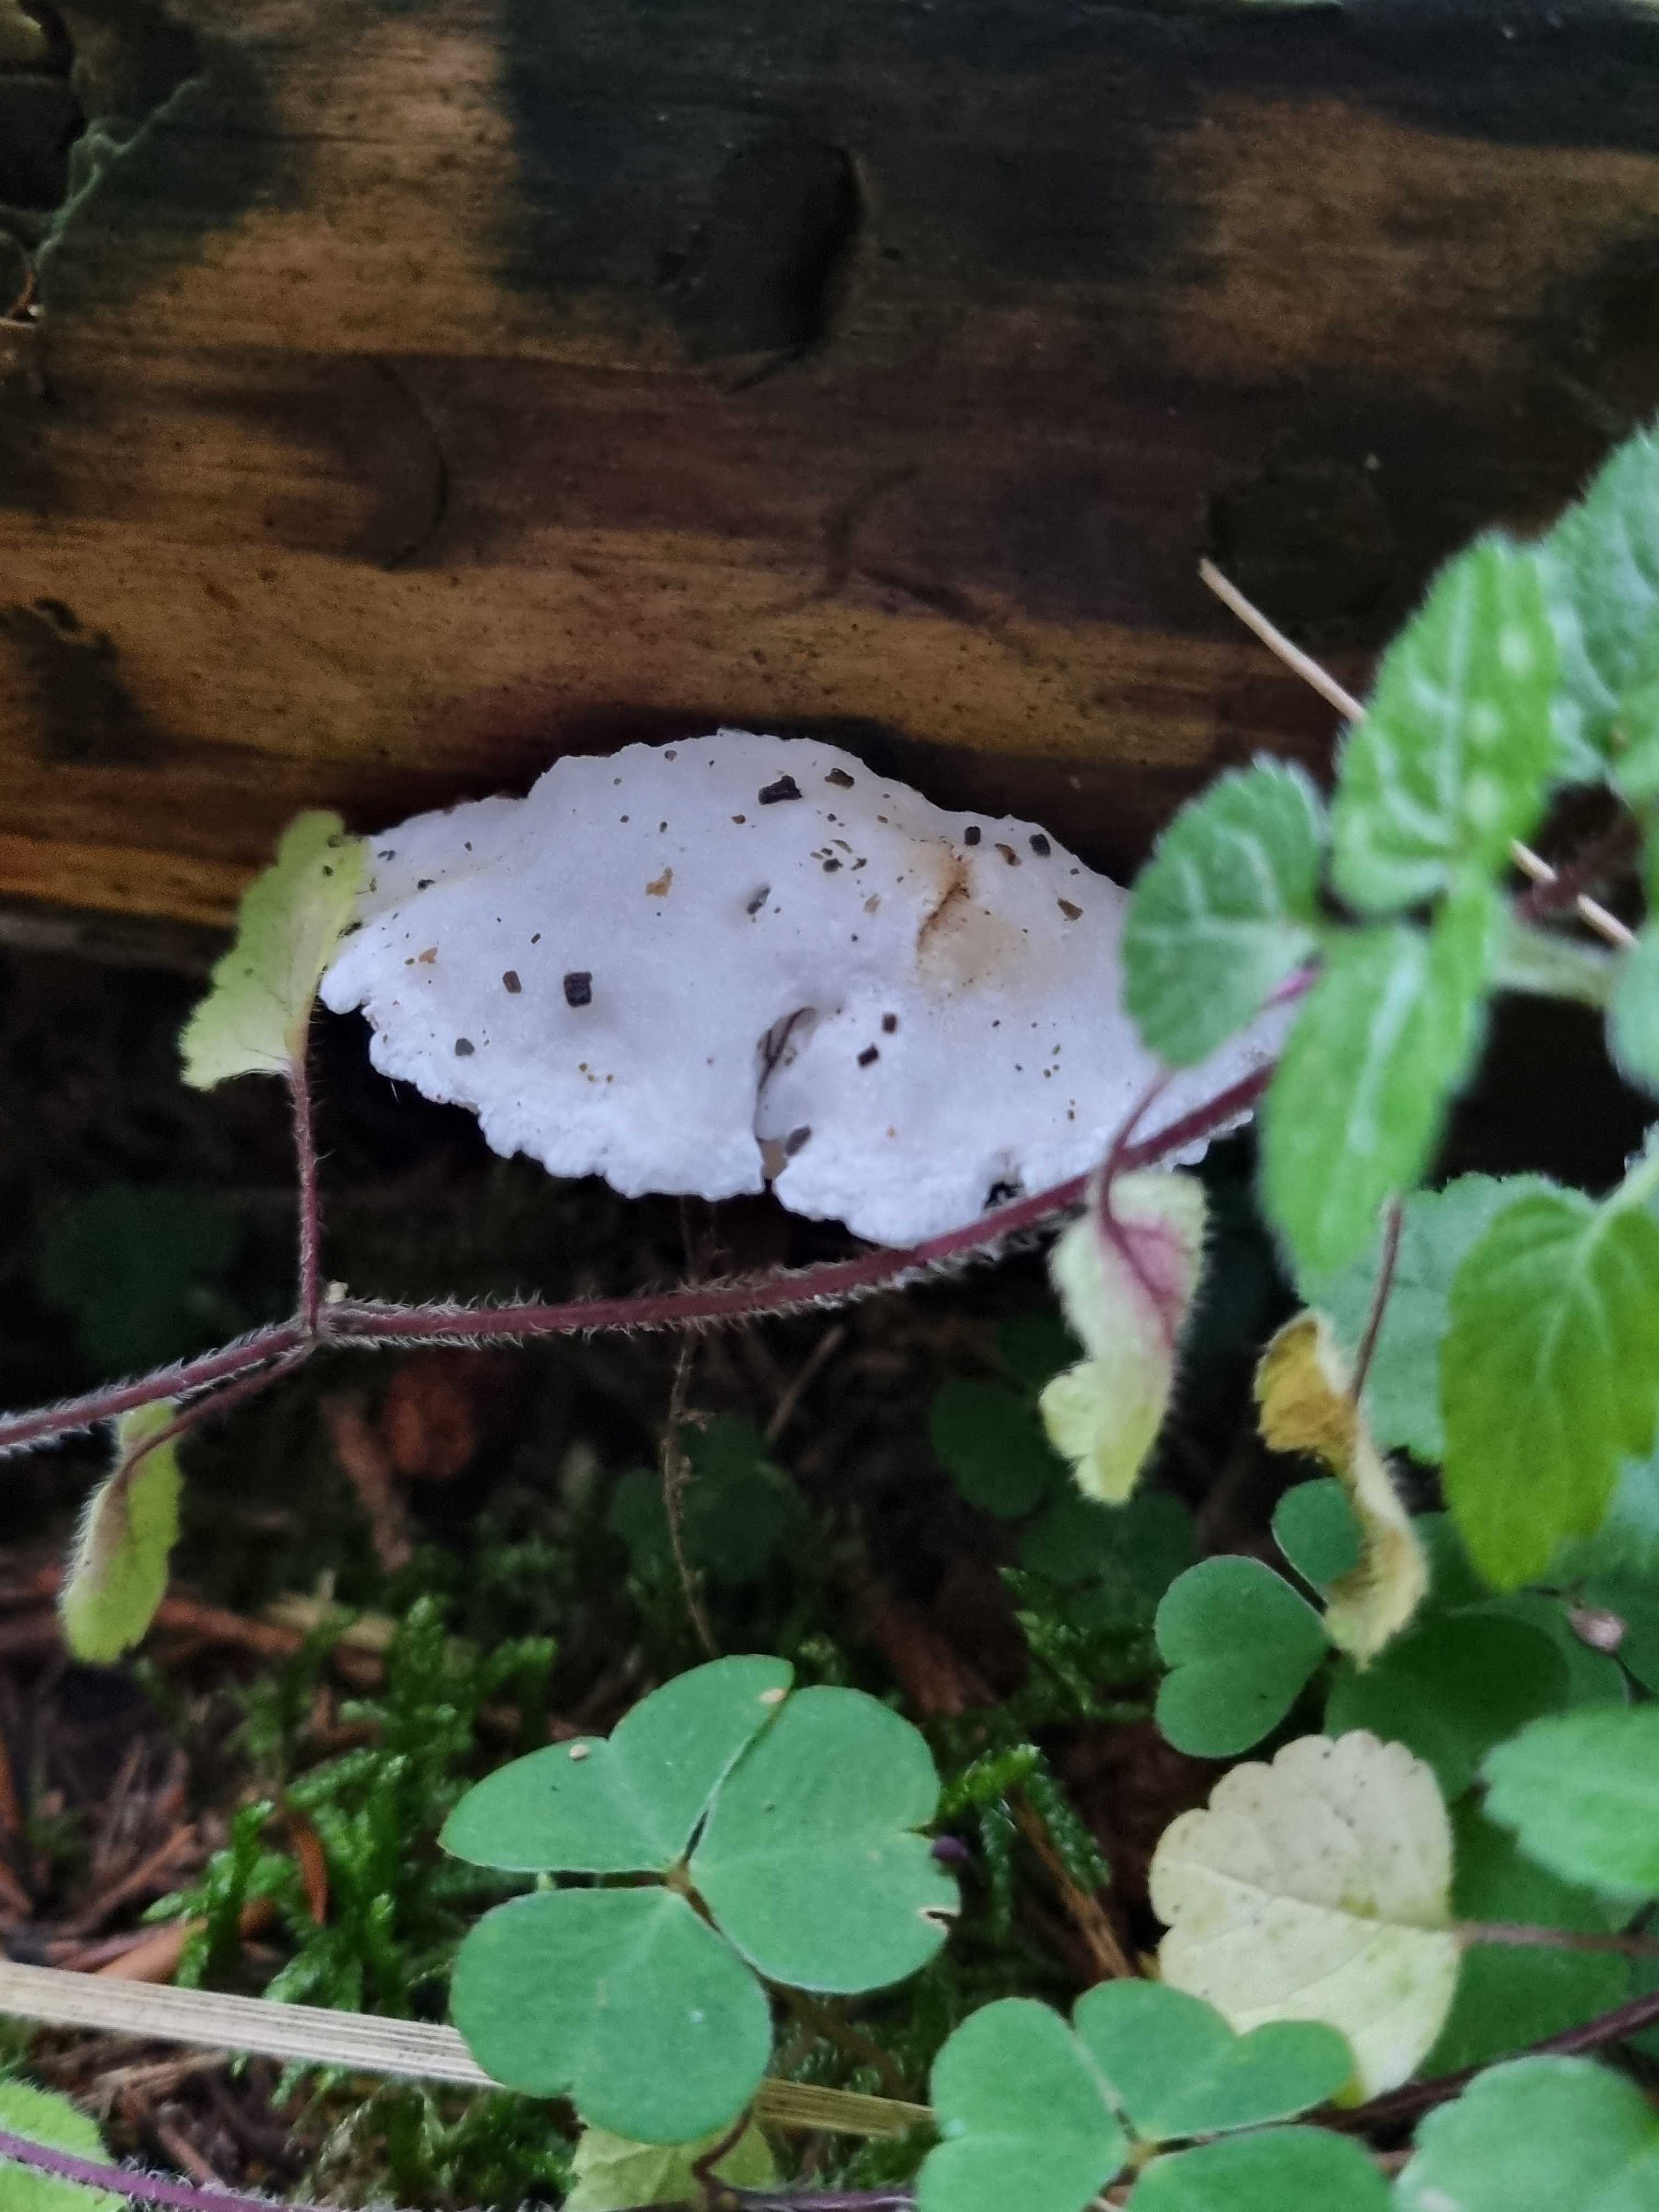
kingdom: Fungi
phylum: Basidiomycota
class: Agaricomycetes
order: Polyporales
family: Fomitopsidaceae
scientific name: Fomitopsidaceae
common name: hovporesvampfamilien
